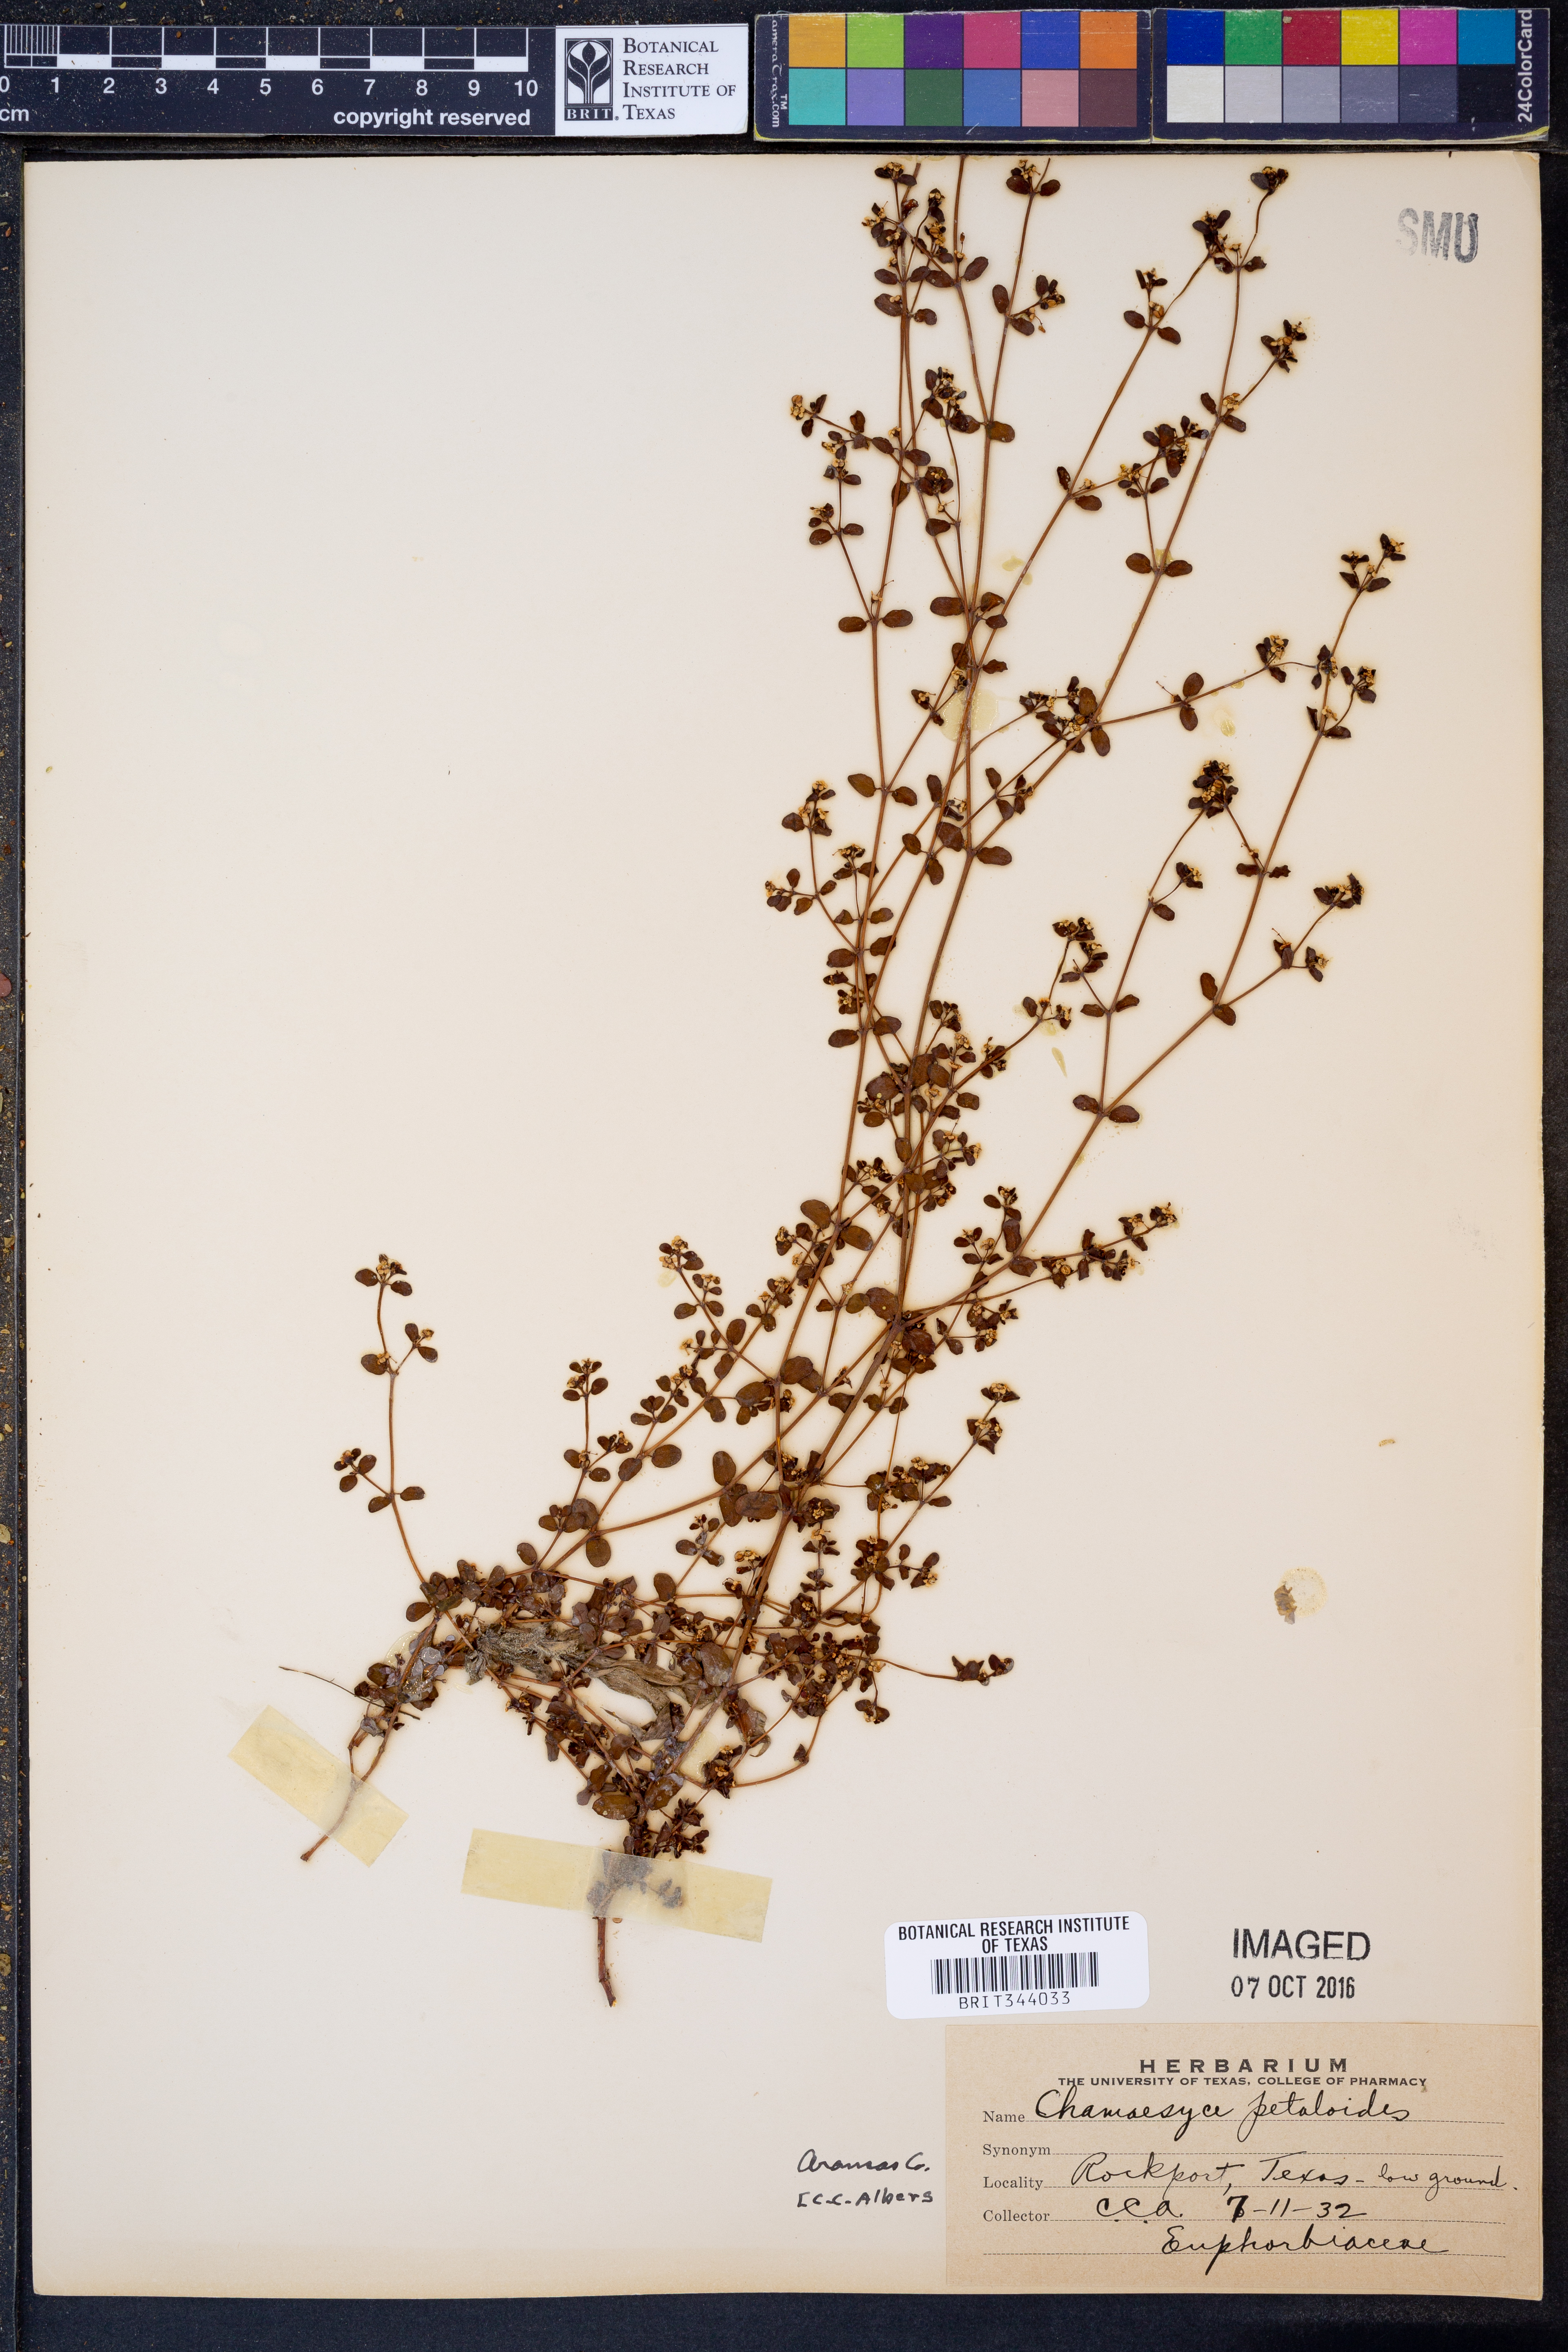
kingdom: Plantae
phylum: Tracheophyta
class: Magnoliopsida
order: Malpighiales
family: Euphorbiaceae
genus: Euphorbia
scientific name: Euphorbia missurica
